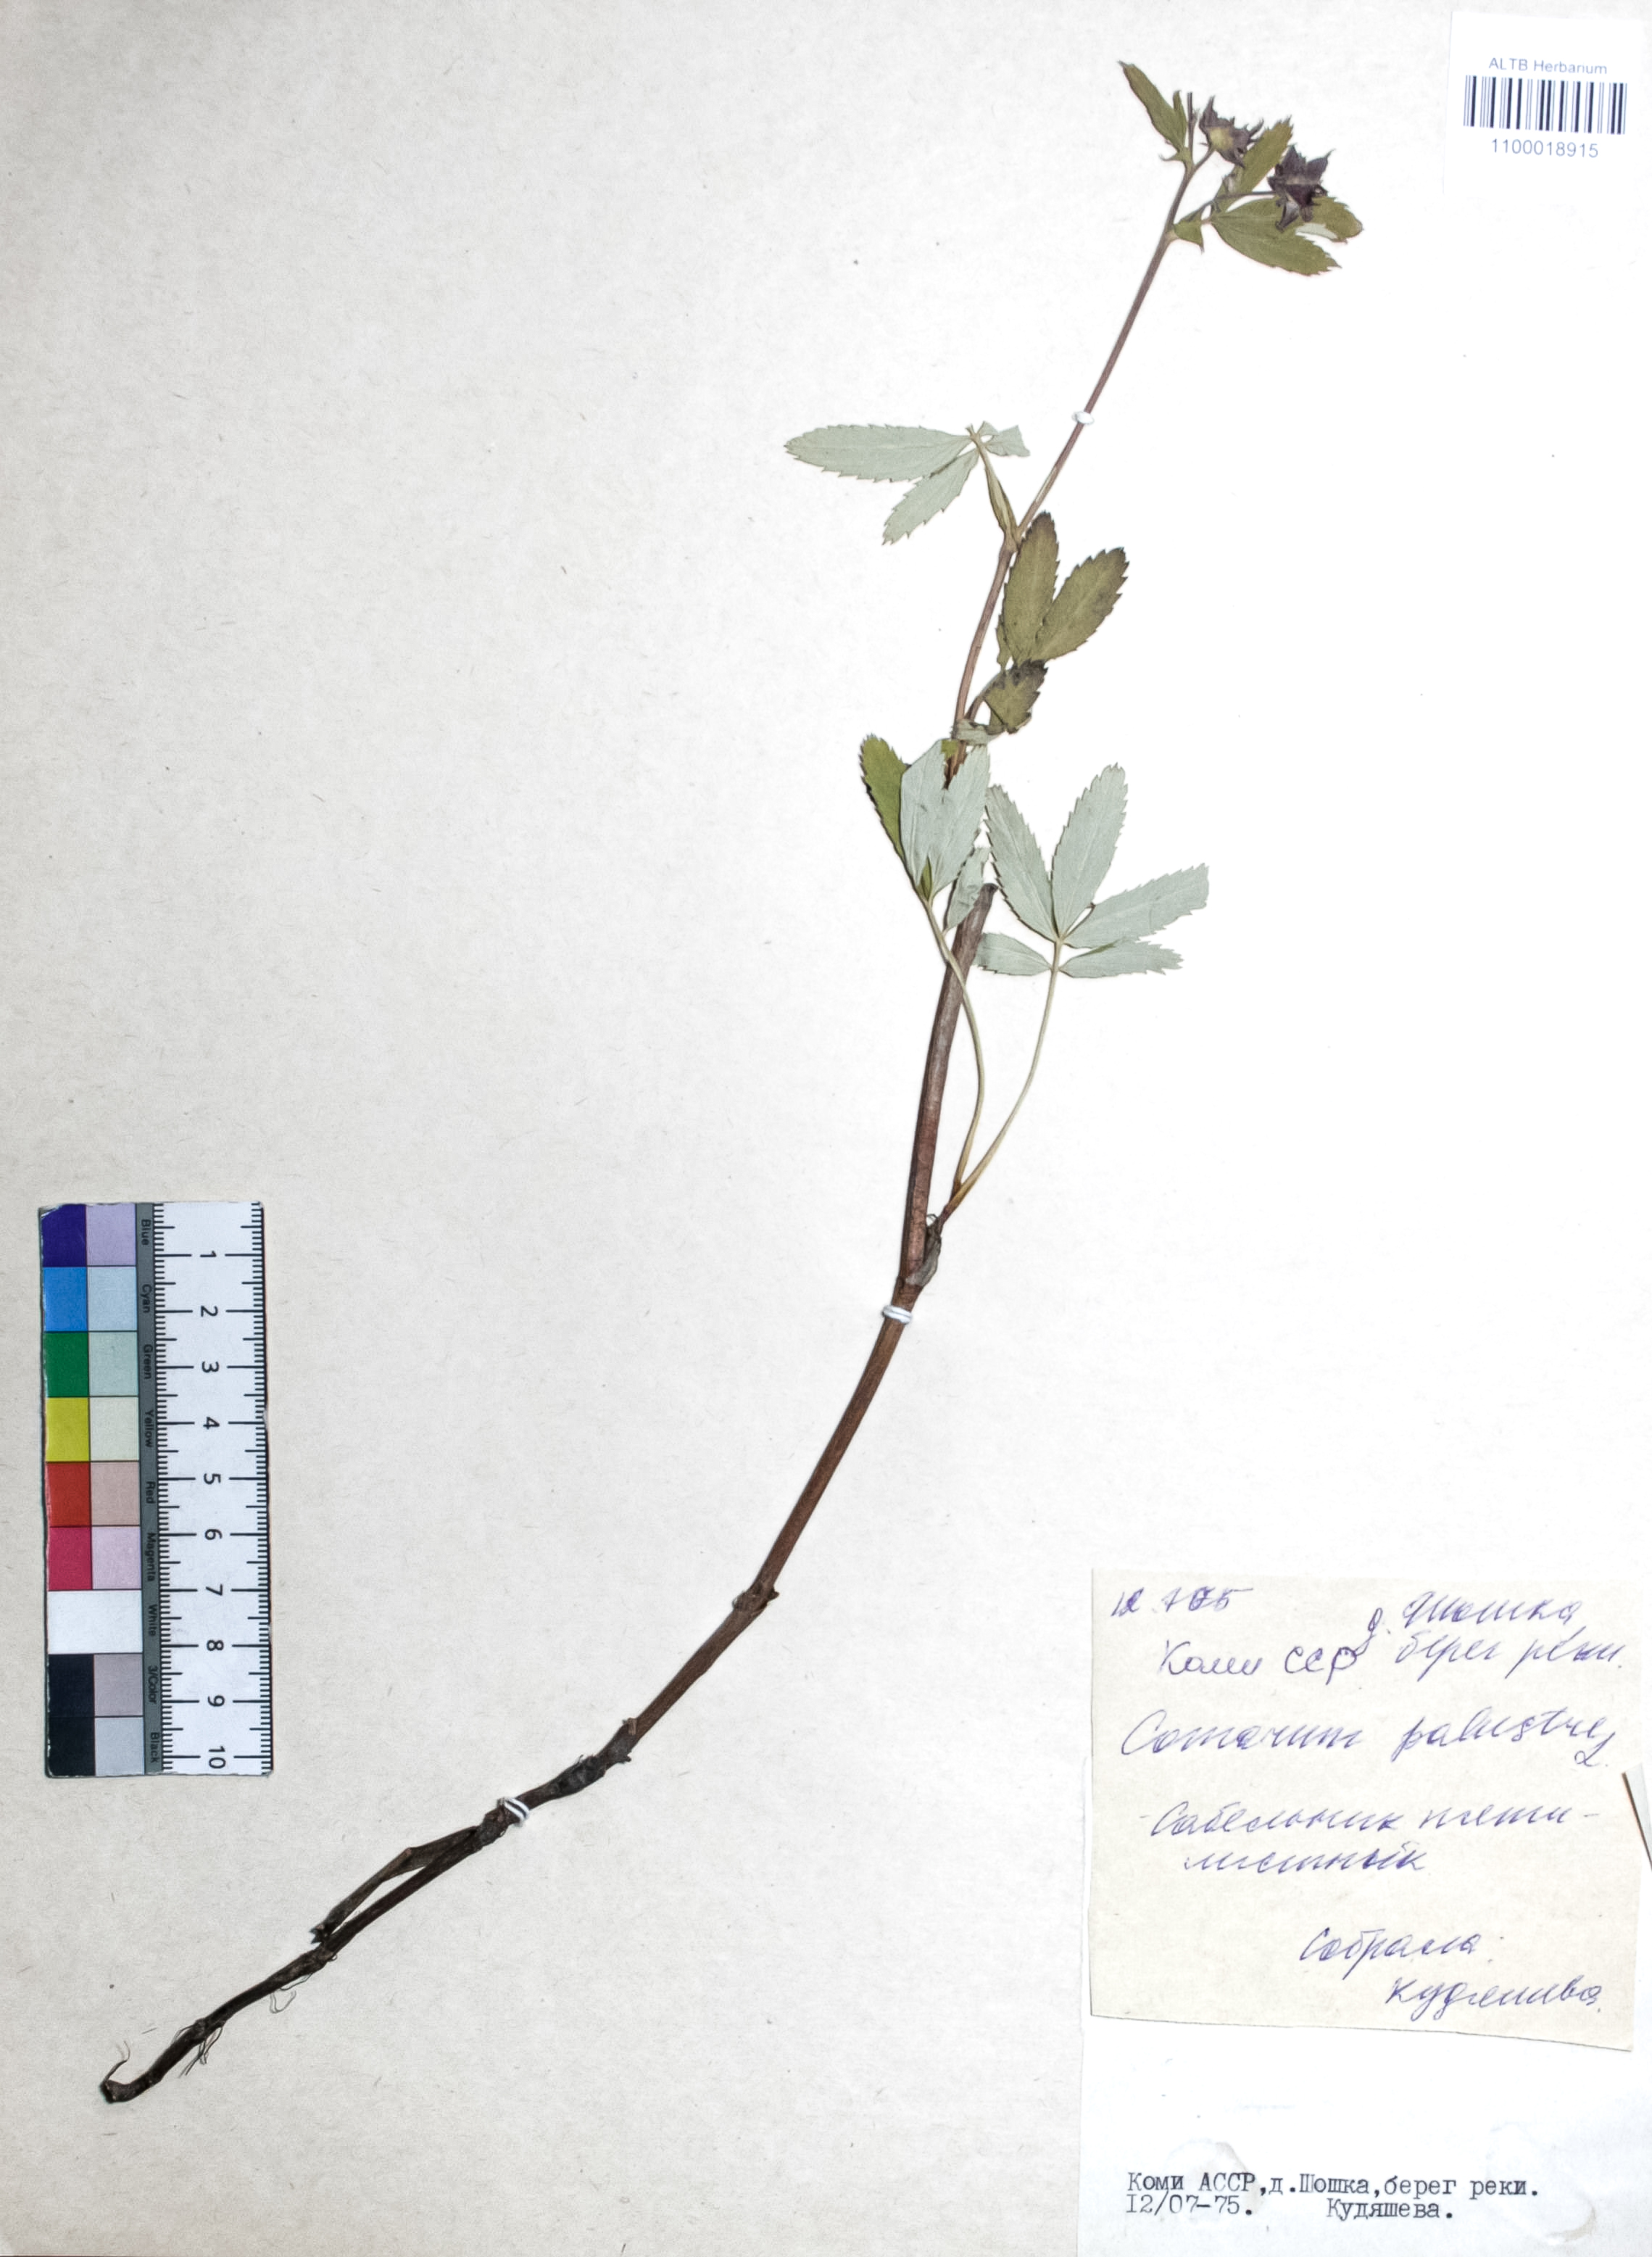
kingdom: Plantae
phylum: Tracheophyta
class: Magnoliopsida
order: Rosales
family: Rosaceae
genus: Comarum
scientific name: Comarum palustre
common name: Marsh cinquefoil
